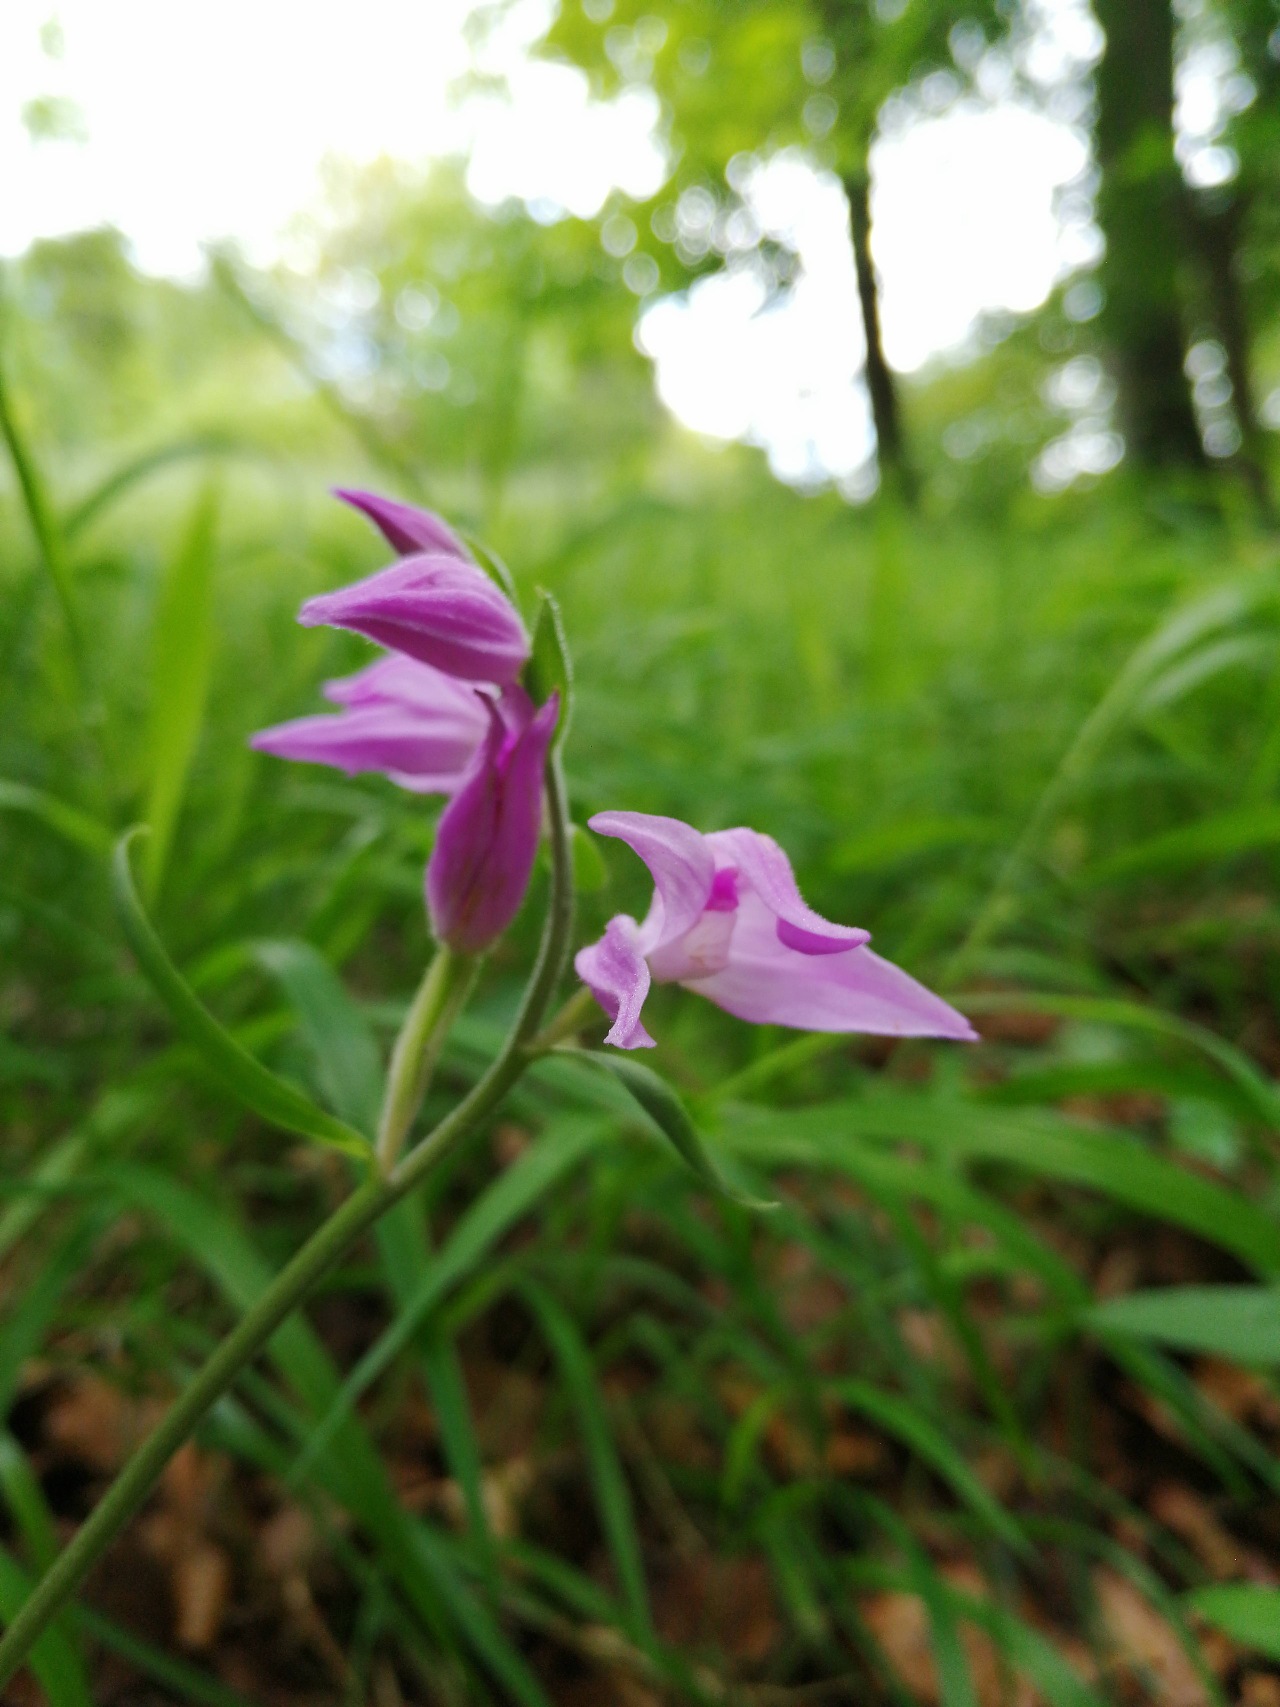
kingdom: Plantae
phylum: Tracheophyta
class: Liliopsida
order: Asparagales
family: Orchidaceae
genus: Cephalanthera
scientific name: Cephalanthera rubra
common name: Rød skovlilje
